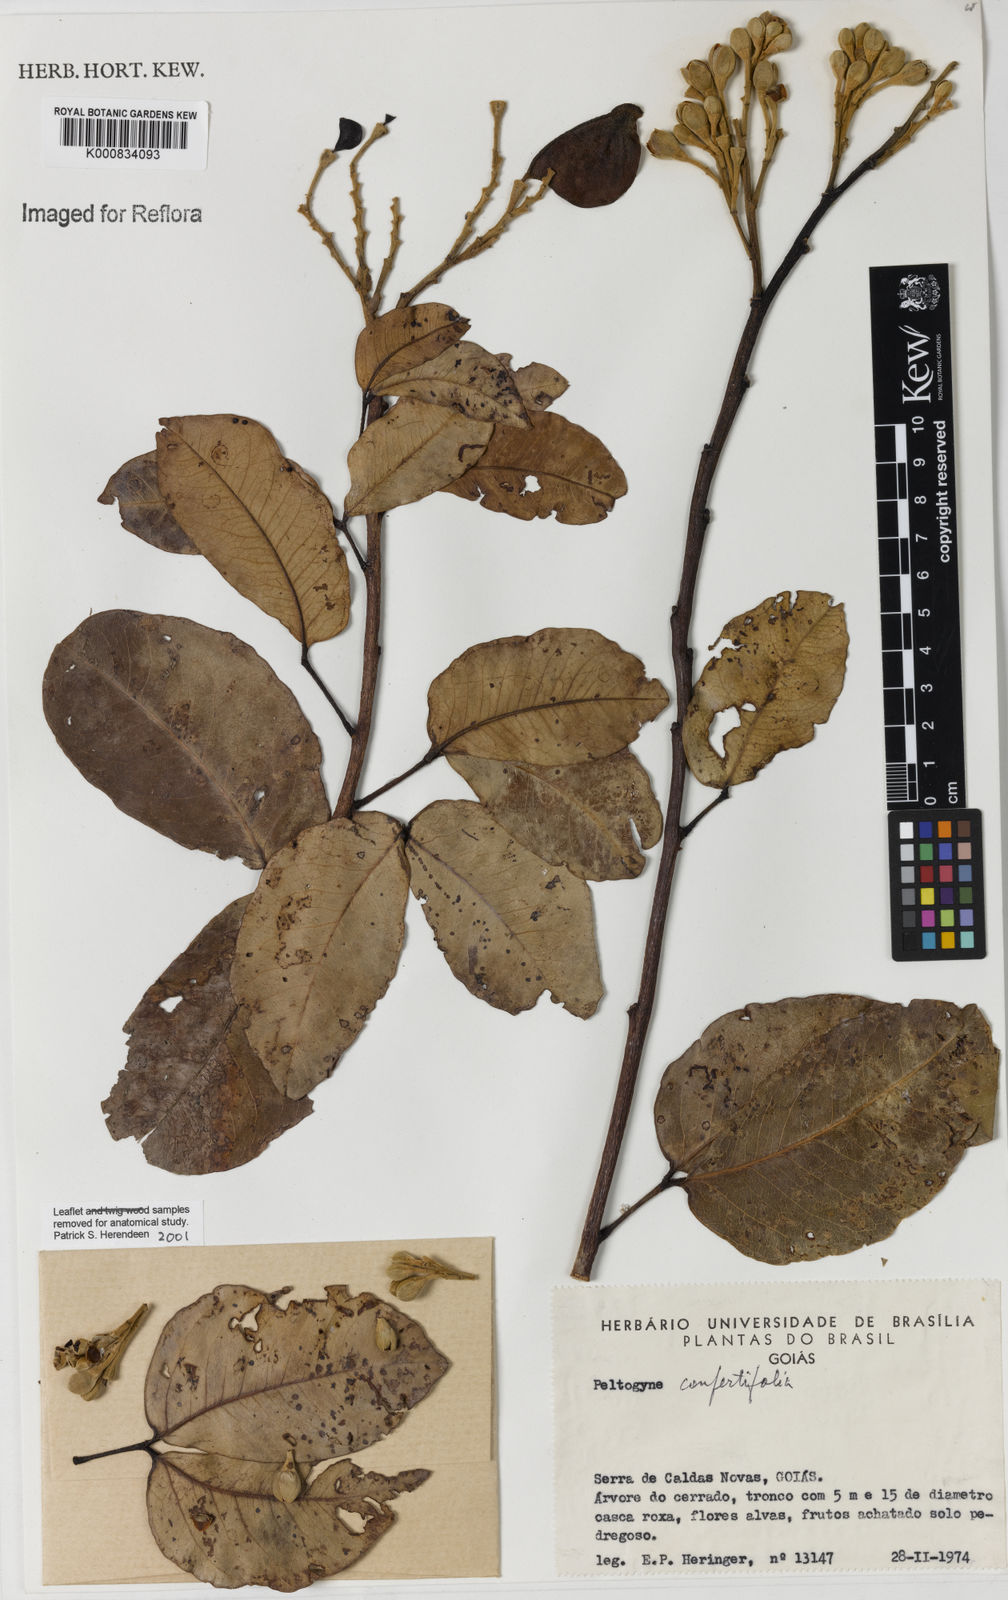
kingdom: Plantae
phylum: Tracheophyta
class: Magnoliopsida
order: Fabales
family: Fabaceae
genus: Peltogyne
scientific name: Peltogyne confertiflora
